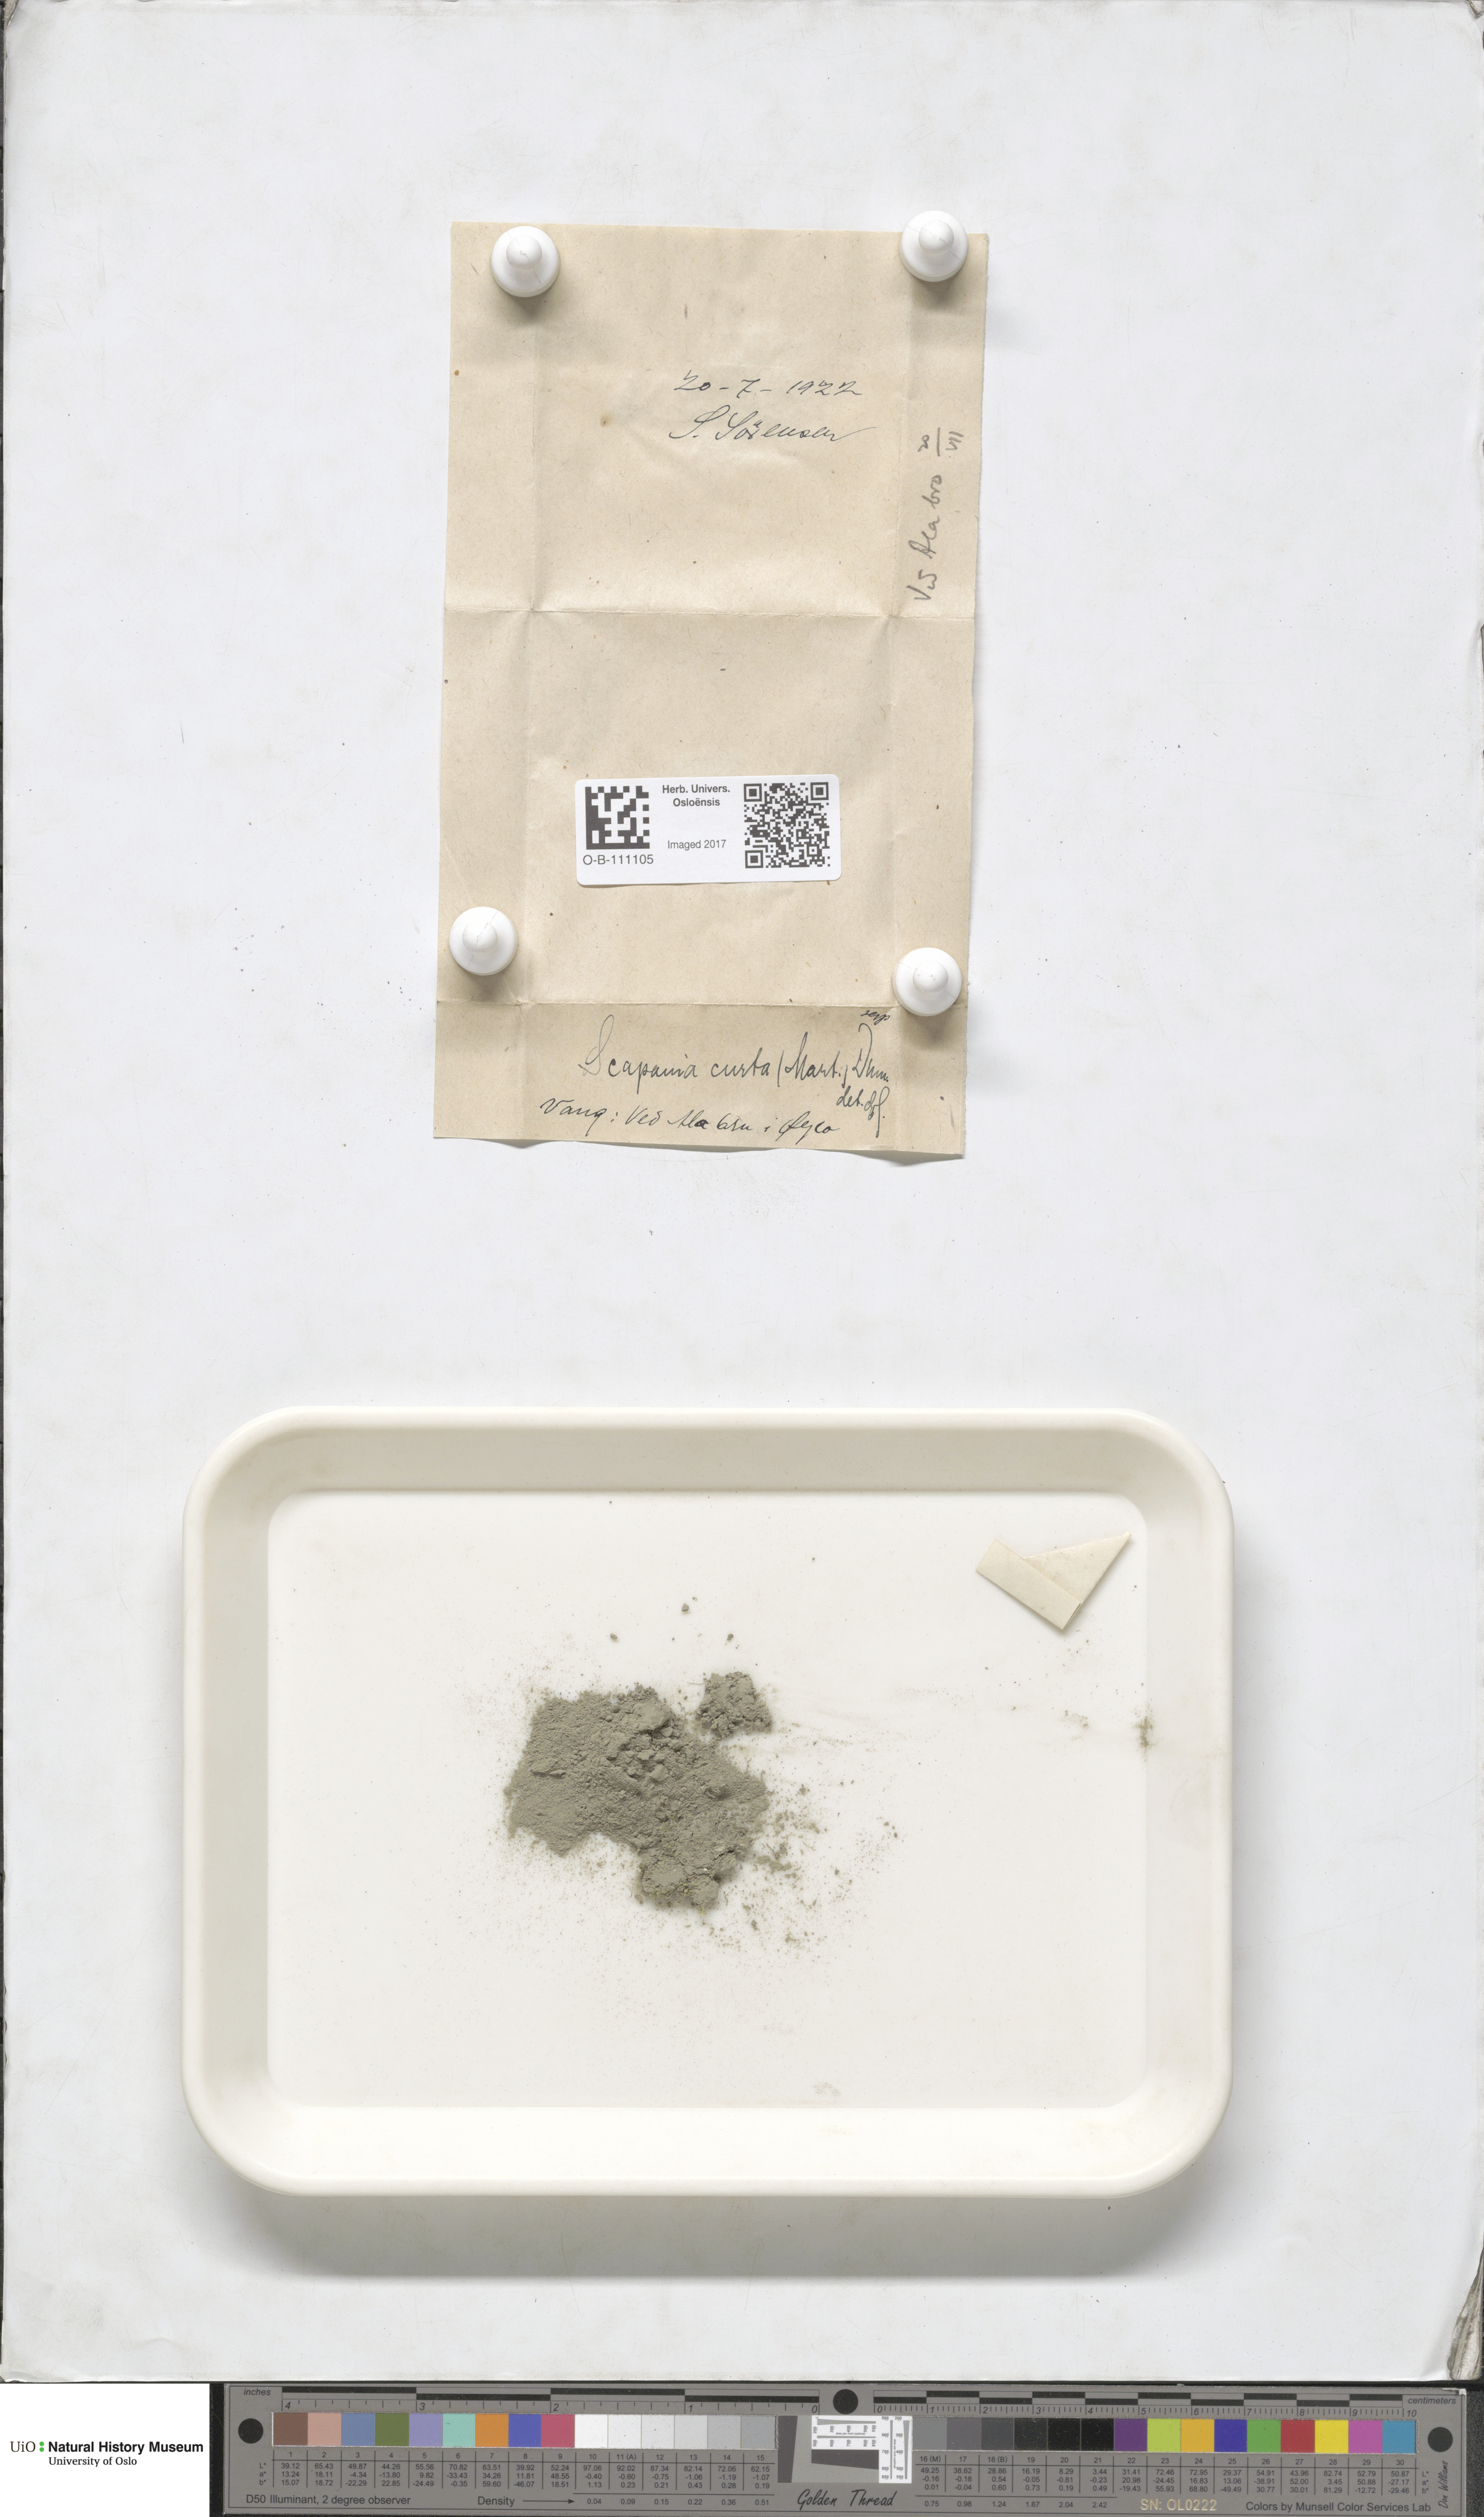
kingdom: Plantae
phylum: Marchantiophyta
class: Jungermanniopsida
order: Jungermanniales
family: Scapaniaceae
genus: Scapania
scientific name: Scapania curta
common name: Least earwort
